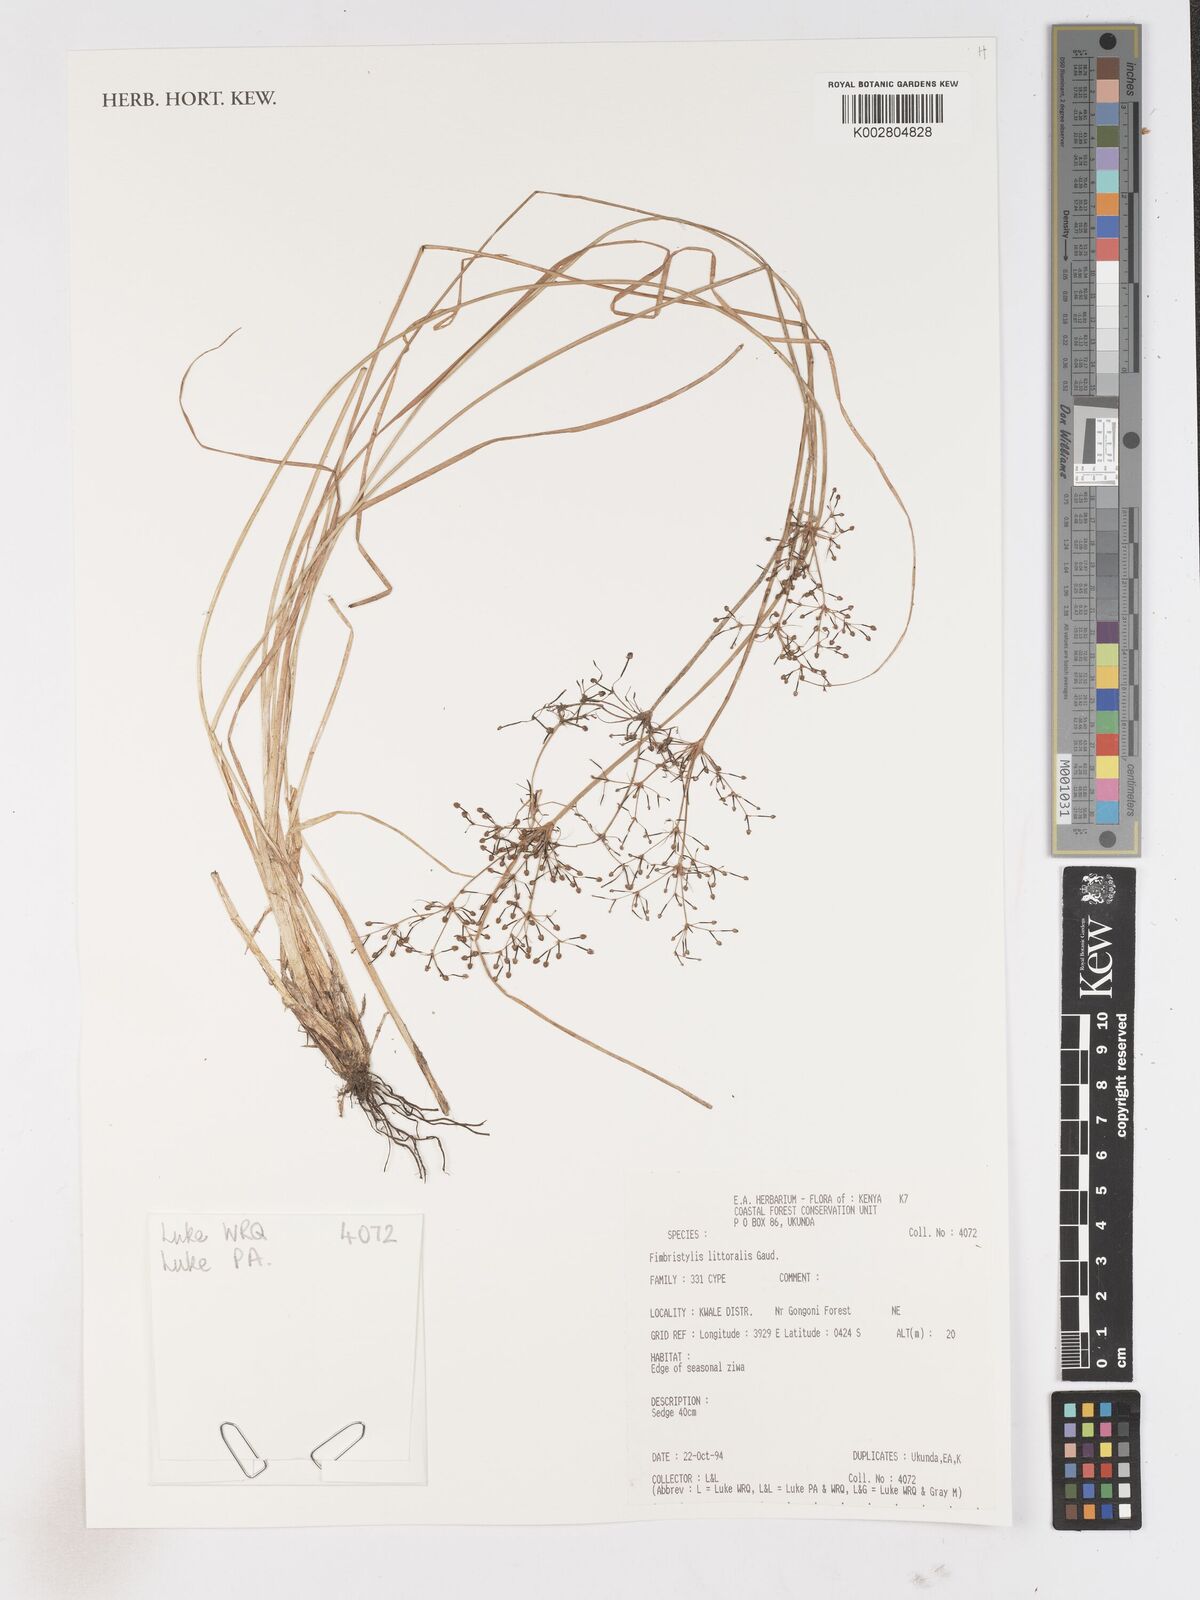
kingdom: Plantae
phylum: Tracheophyta
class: Liliopsida
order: Poales
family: Cyperaceae
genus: Fimbristylis
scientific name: Fimbristylis littoralis
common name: Fimbry
